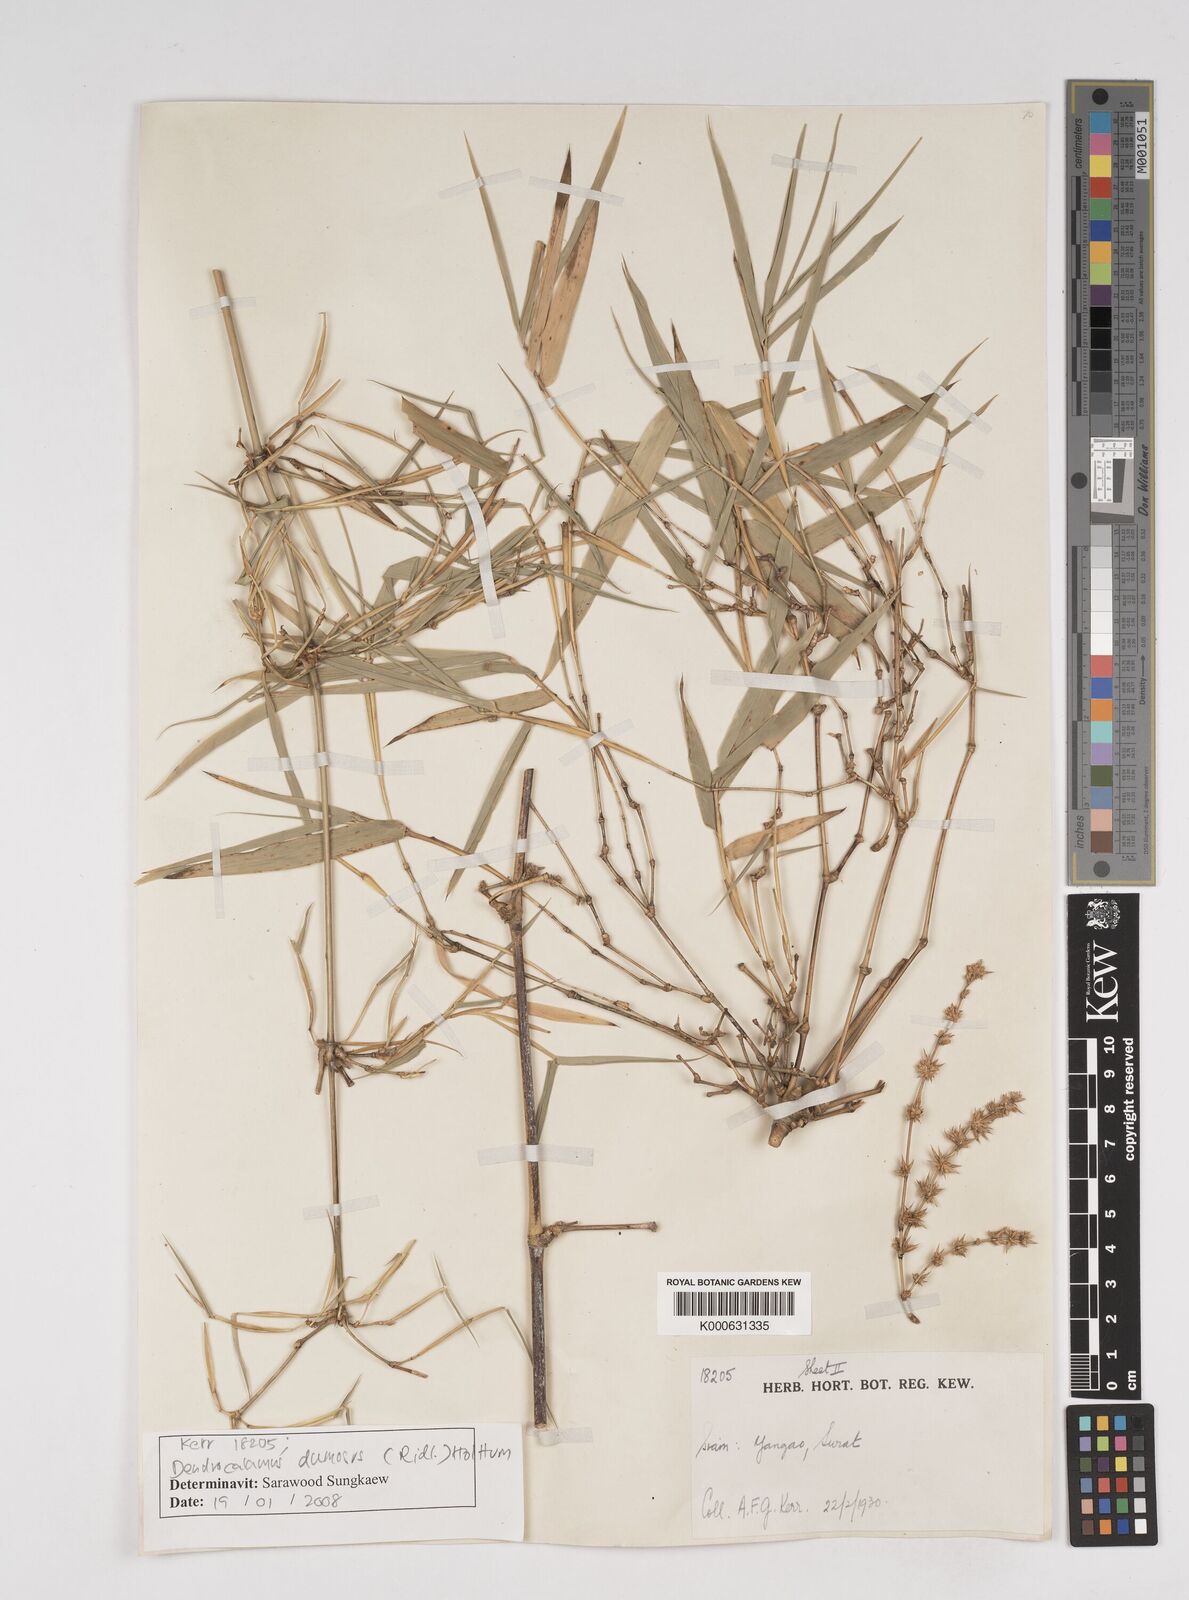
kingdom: Plantae
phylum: Tracheophyta
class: Liliopsida
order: Poales
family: Poaceae
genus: Dendrocalamus
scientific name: Dendrocalamus dumosus
